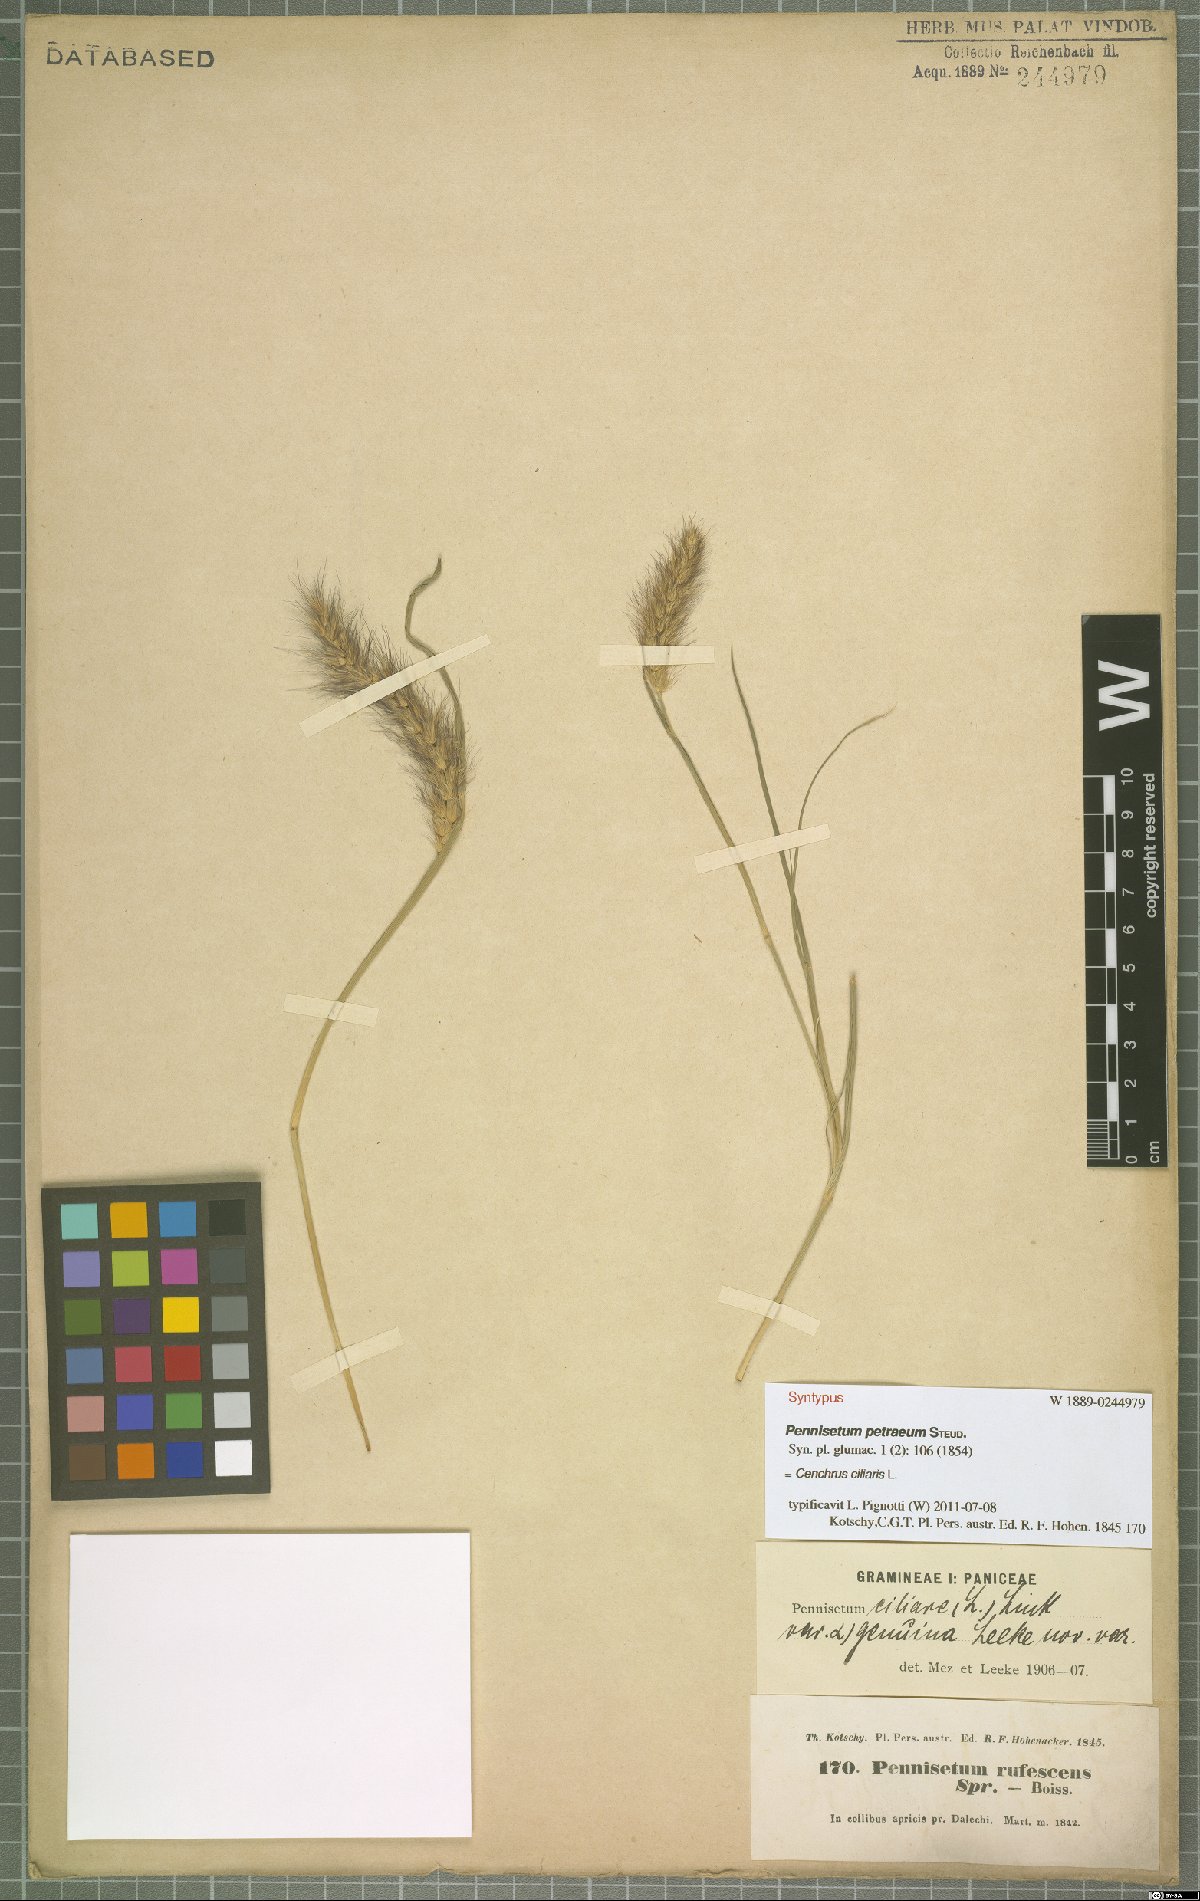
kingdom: Plantae
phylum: Tracheophyta
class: Liliopsida
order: Poales
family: Poaceae
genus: Cenchrus
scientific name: Cenchrus ciliaris
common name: Buffelgrass
